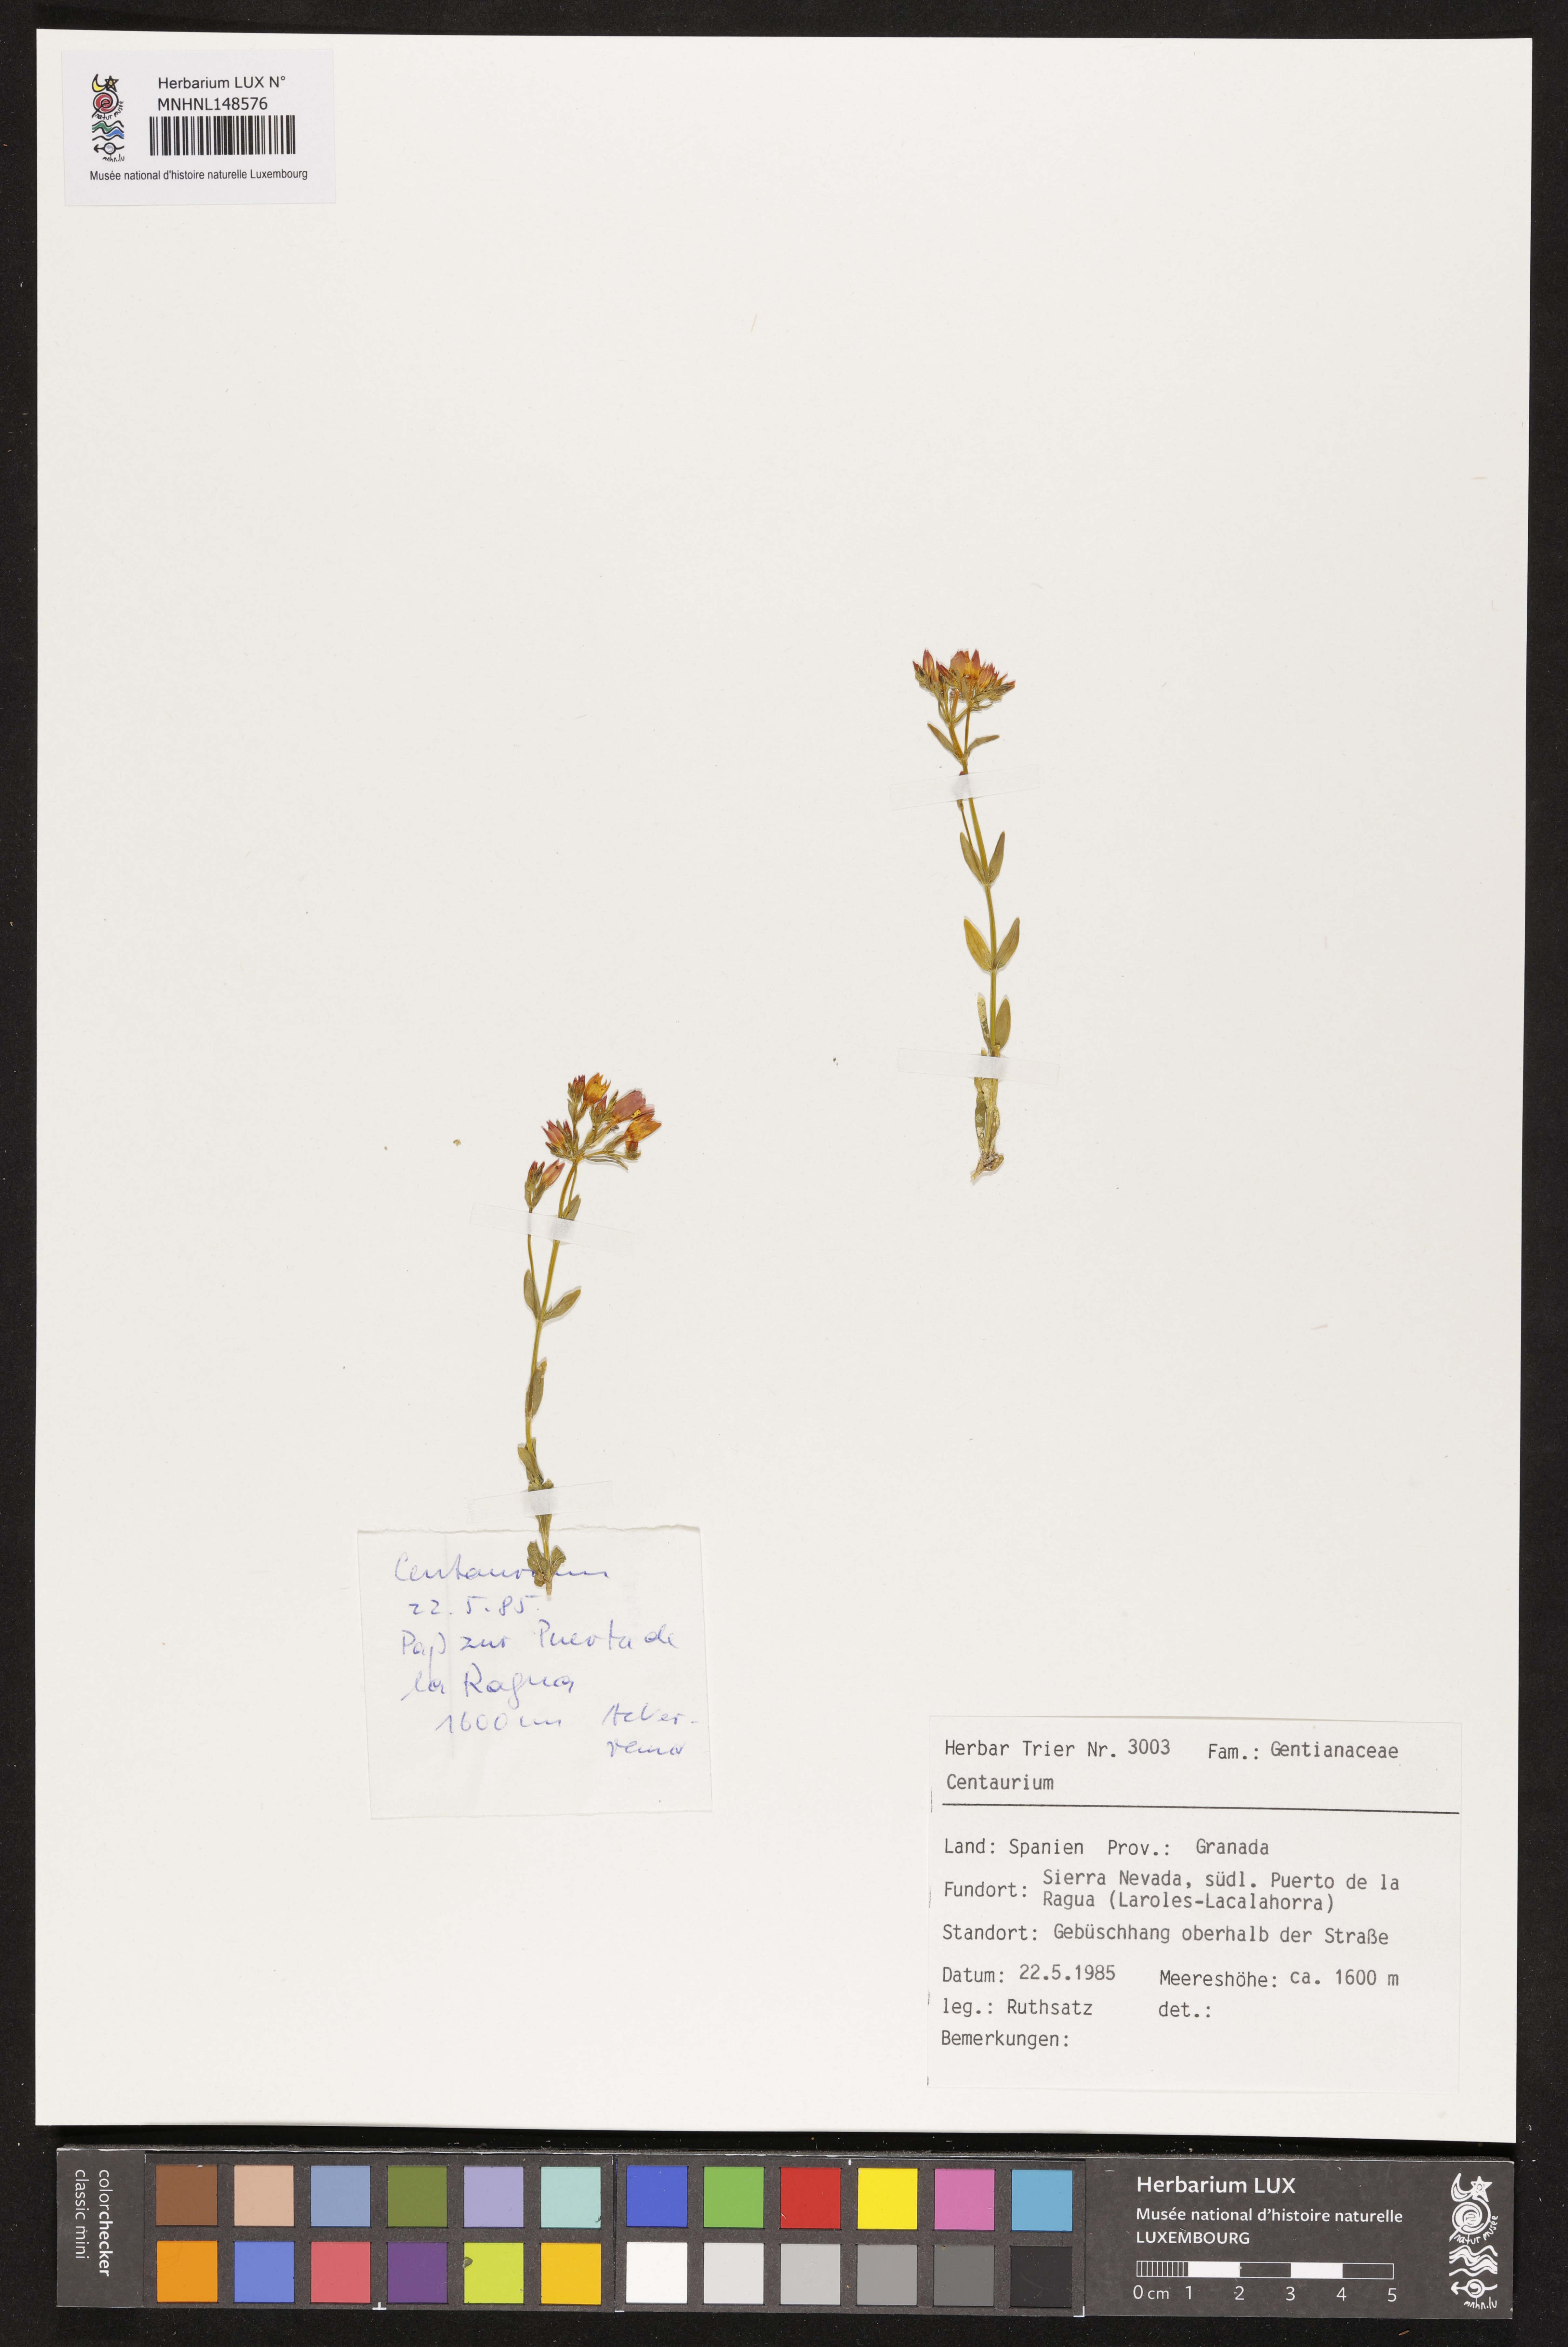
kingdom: Plantae
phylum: Tracheophyta
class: Magnoliopsida
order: Gentianales
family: Gentianaceae
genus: Centaurium
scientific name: Centaurium
